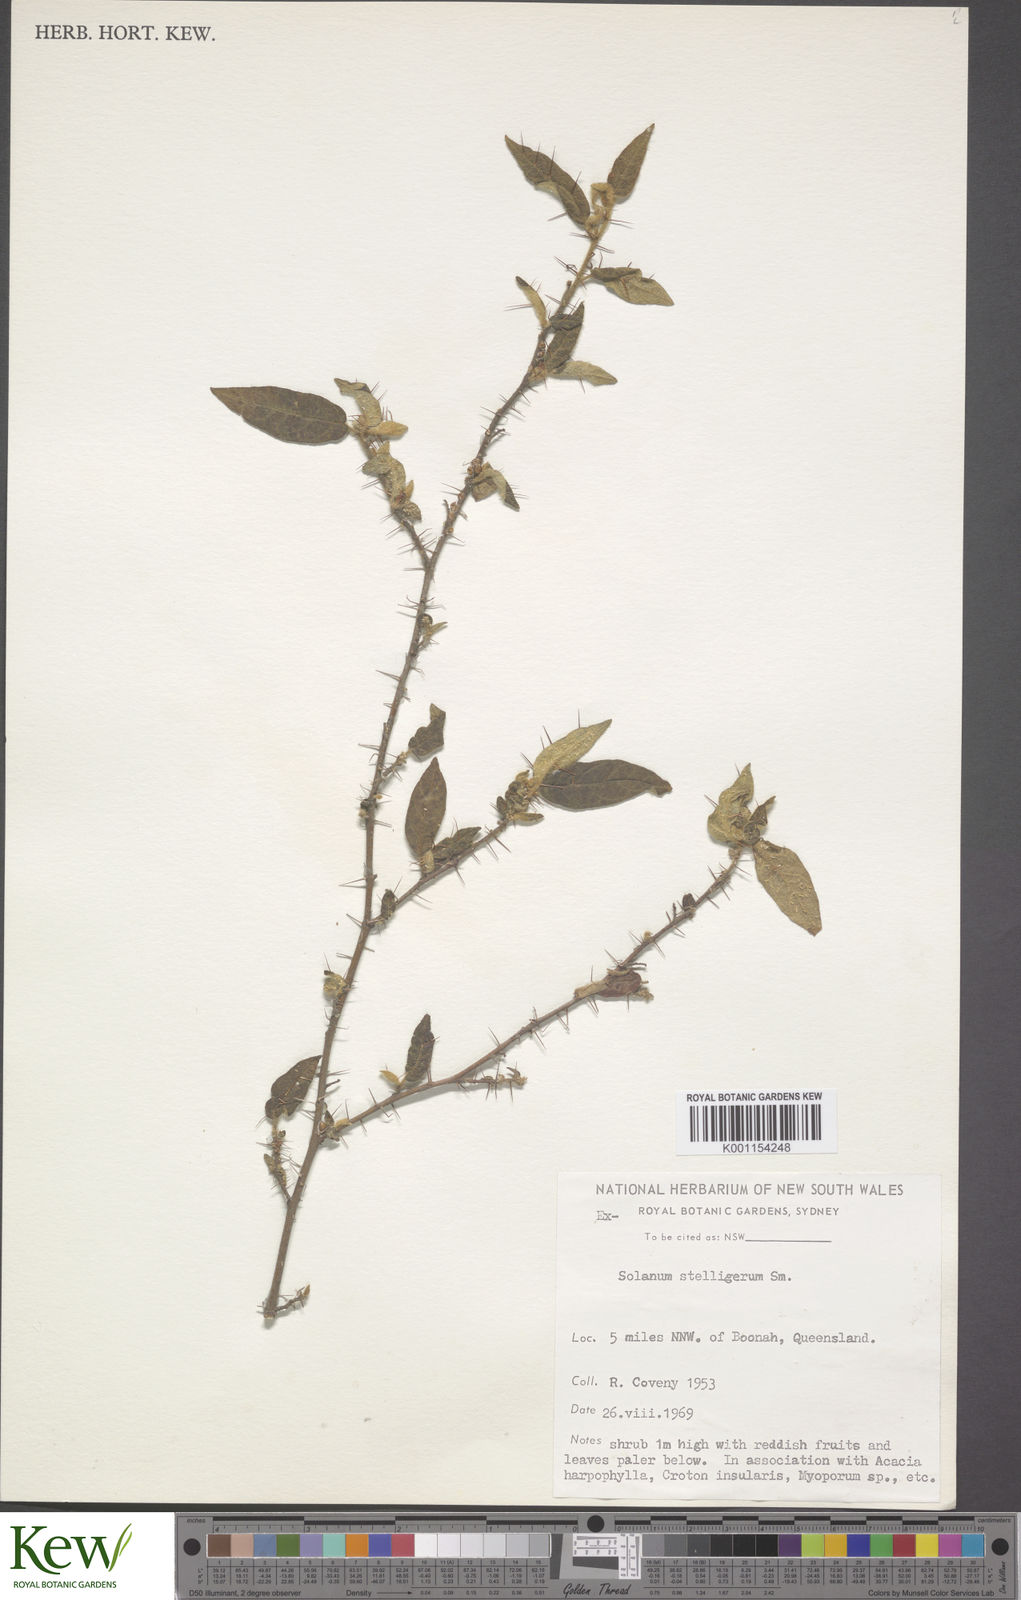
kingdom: Plantae
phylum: Tracheophyta
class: Magnoliopsida
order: Solanales
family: Solanaceae
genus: Solanum
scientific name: Solanum stelligerum
